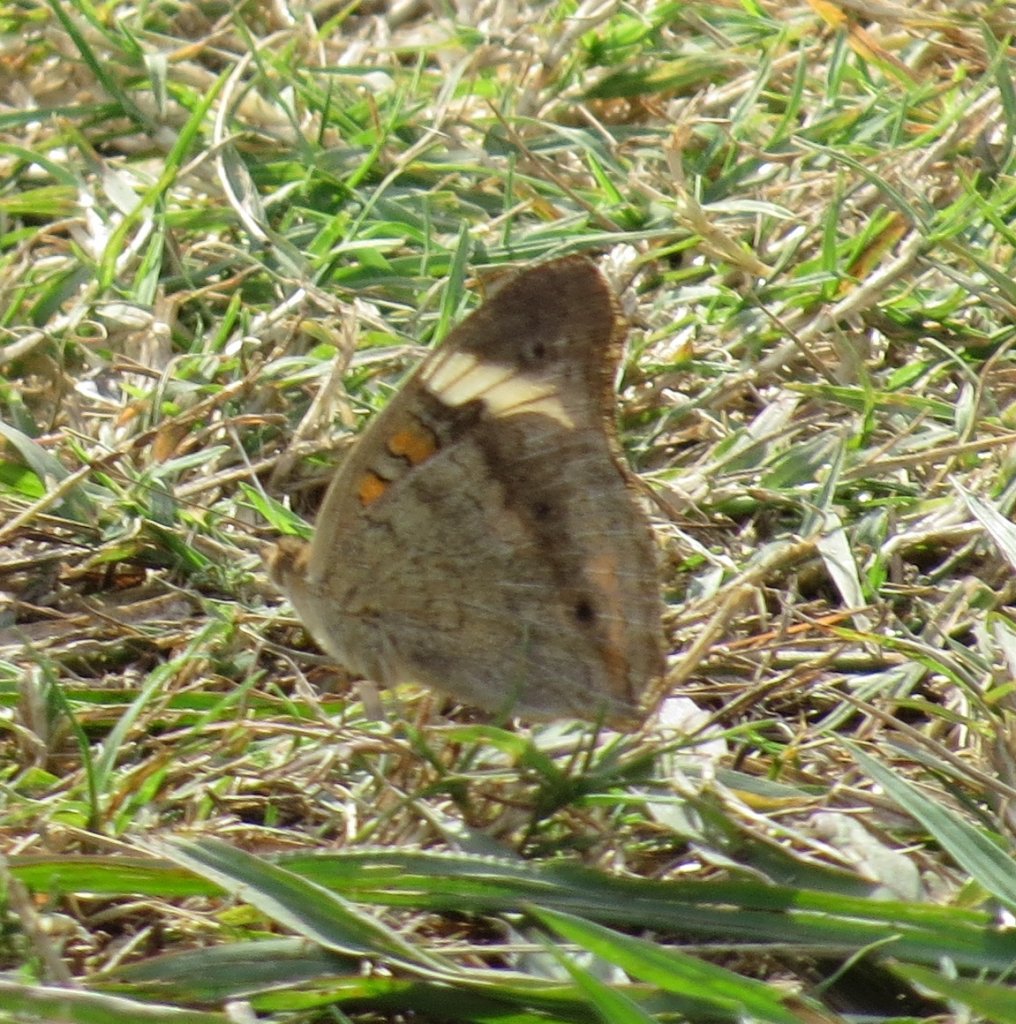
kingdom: Animalia
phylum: Arthropoda
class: Insecta
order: Lepidoptera
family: Nymphalidae
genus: Junonia
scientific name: Junonia coenia
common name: Common Buckeye
